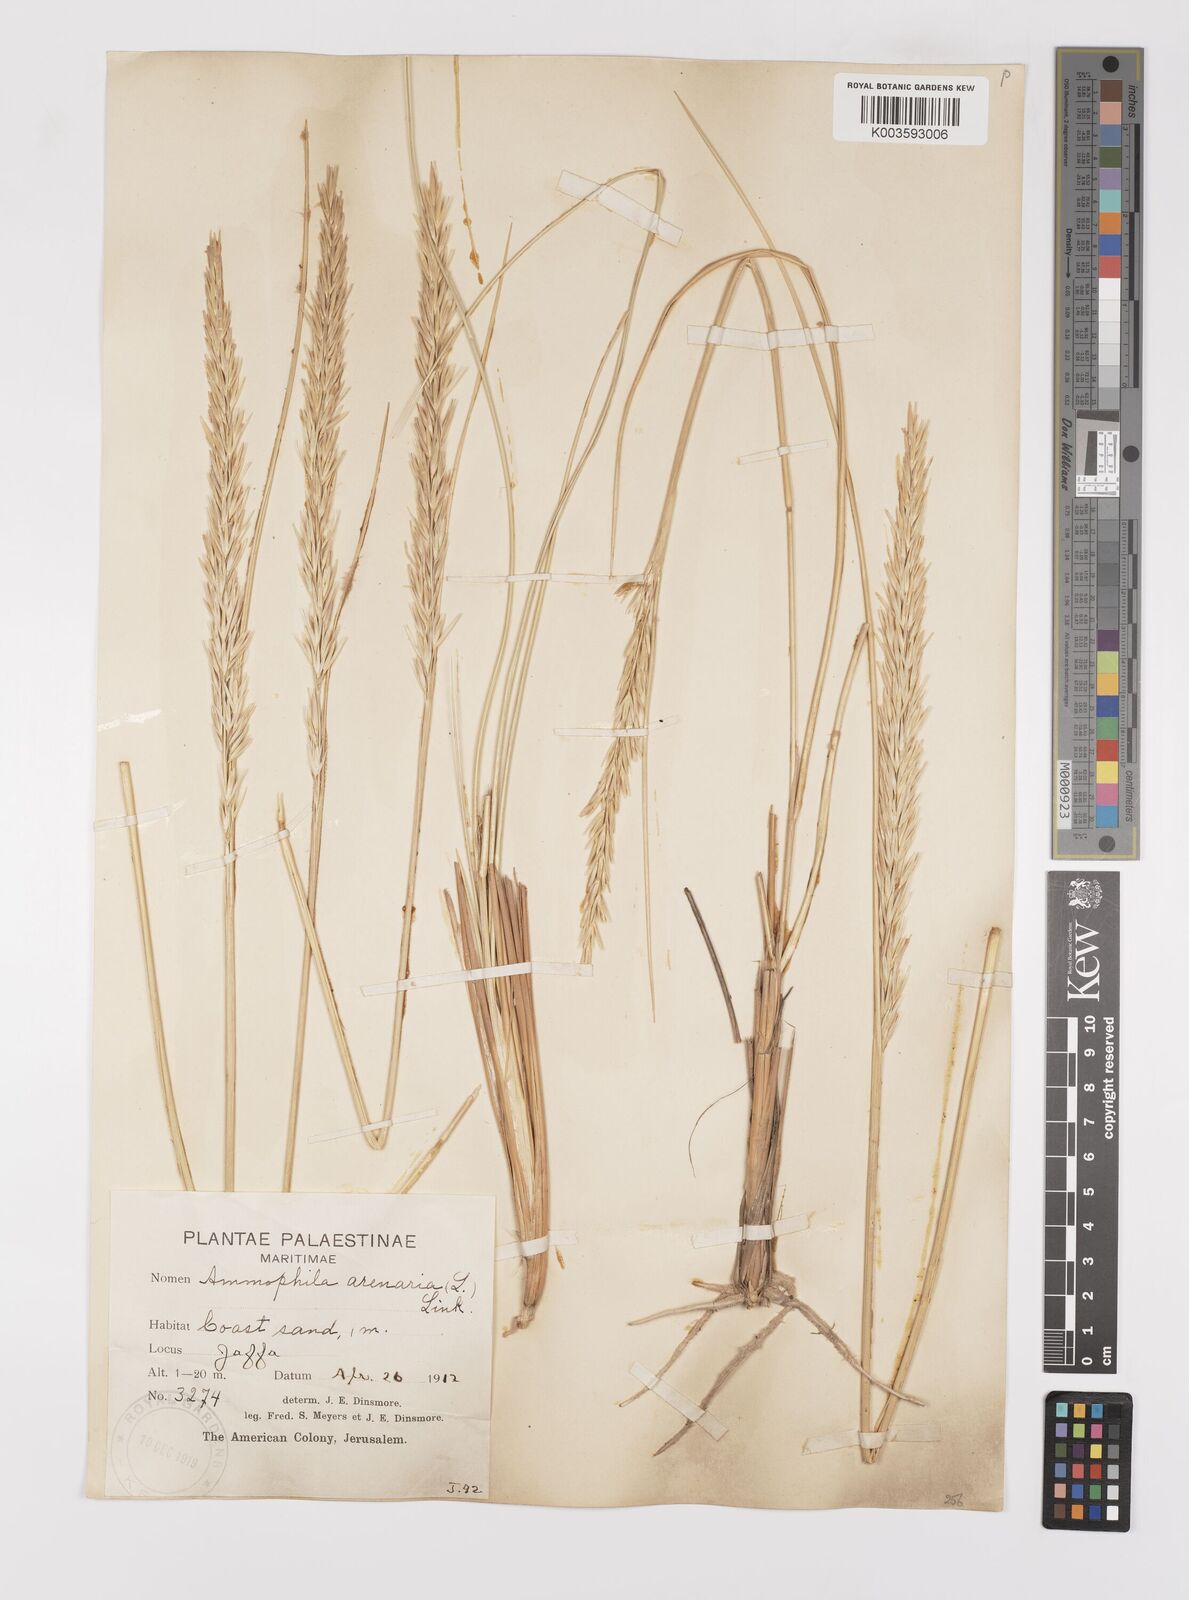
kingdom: Plantae
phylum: Tracheophyta
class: Liliopsida
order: Poales
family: Poaceae
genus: Calamagrostis
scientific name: Calamagrostis arenaria
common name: European beachgrass
